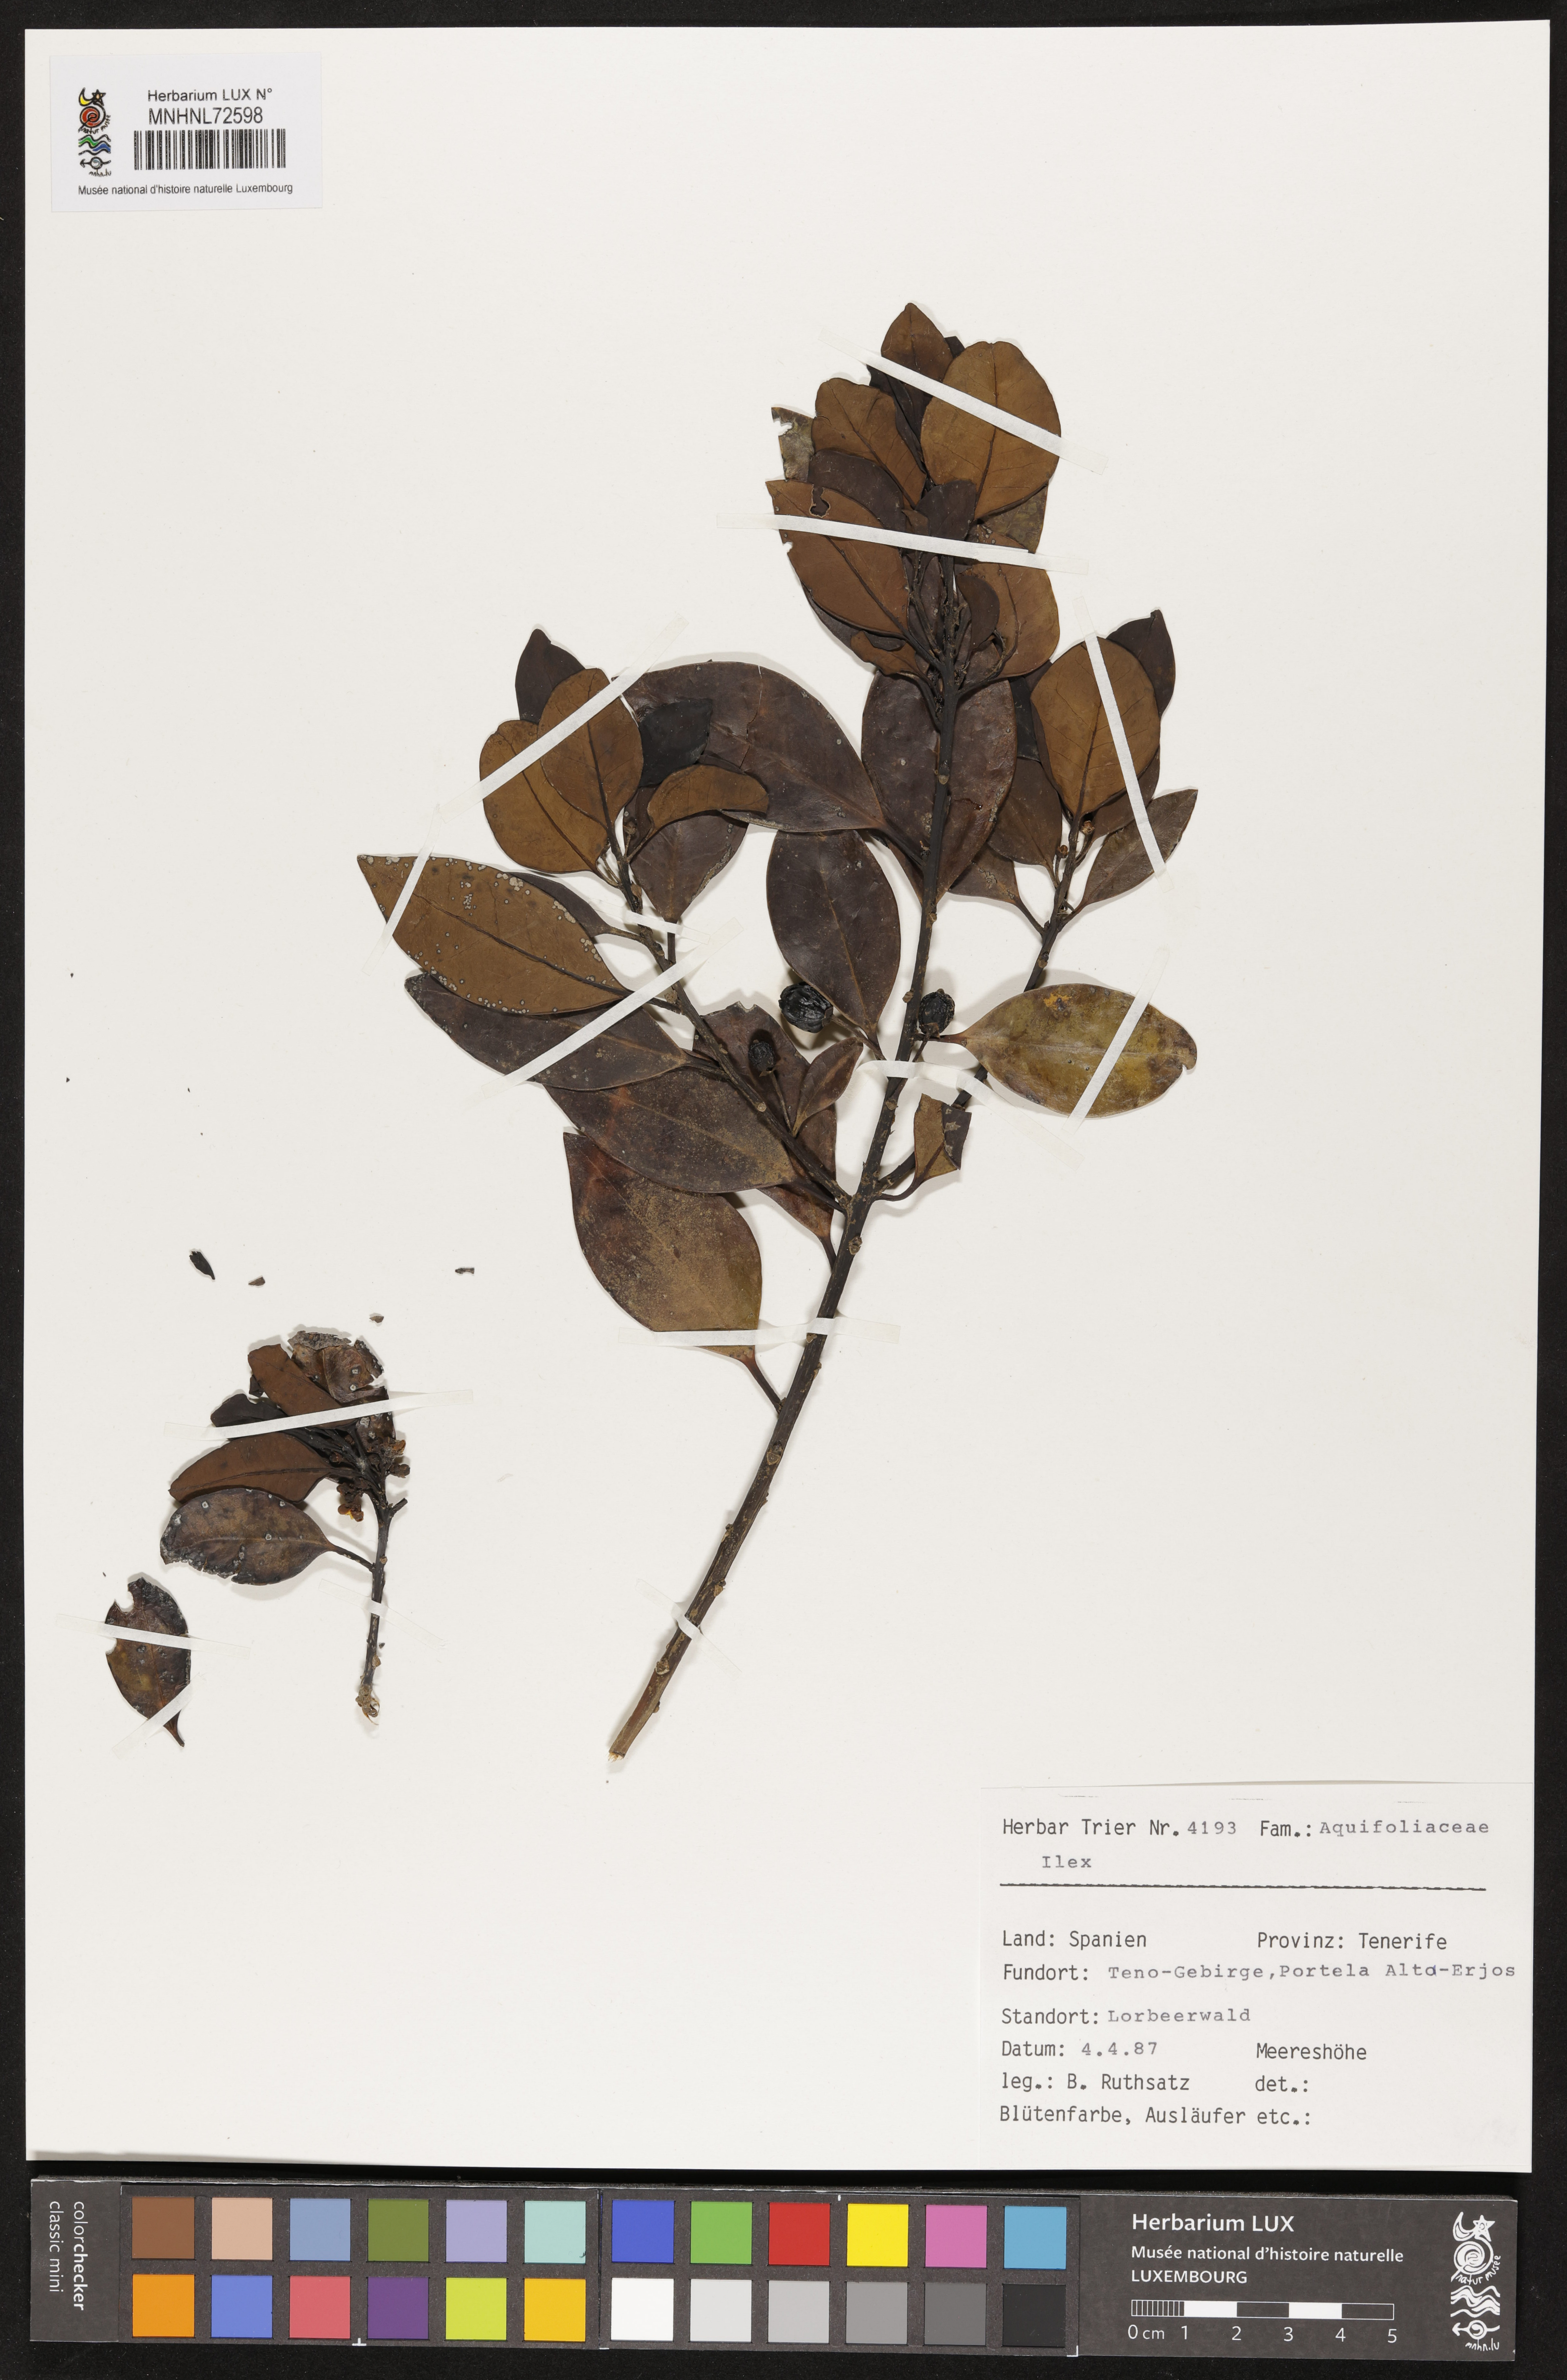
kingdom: Plantae
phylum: Tracheophyta
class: Magnoliopsida
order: Aquifoliales
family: Aquifoliaceae
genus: Ilex
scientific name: Ilex
